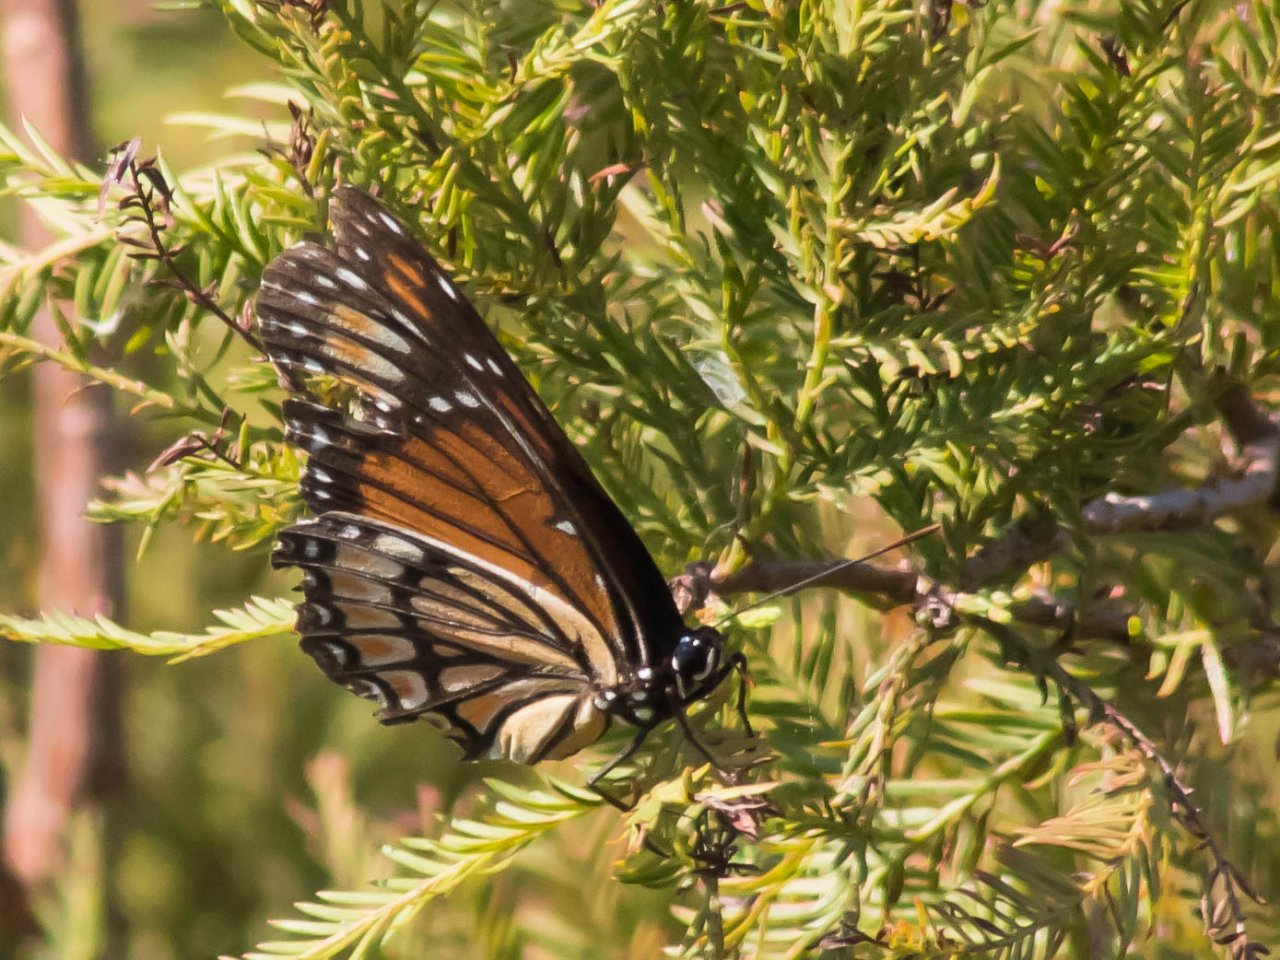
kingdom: Animalia
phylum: Arthropoda
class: Insecta
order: Lepidoptera
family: Nymphalidae
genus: Limenitis
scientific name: Limenitis archippus
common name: Viceroy
